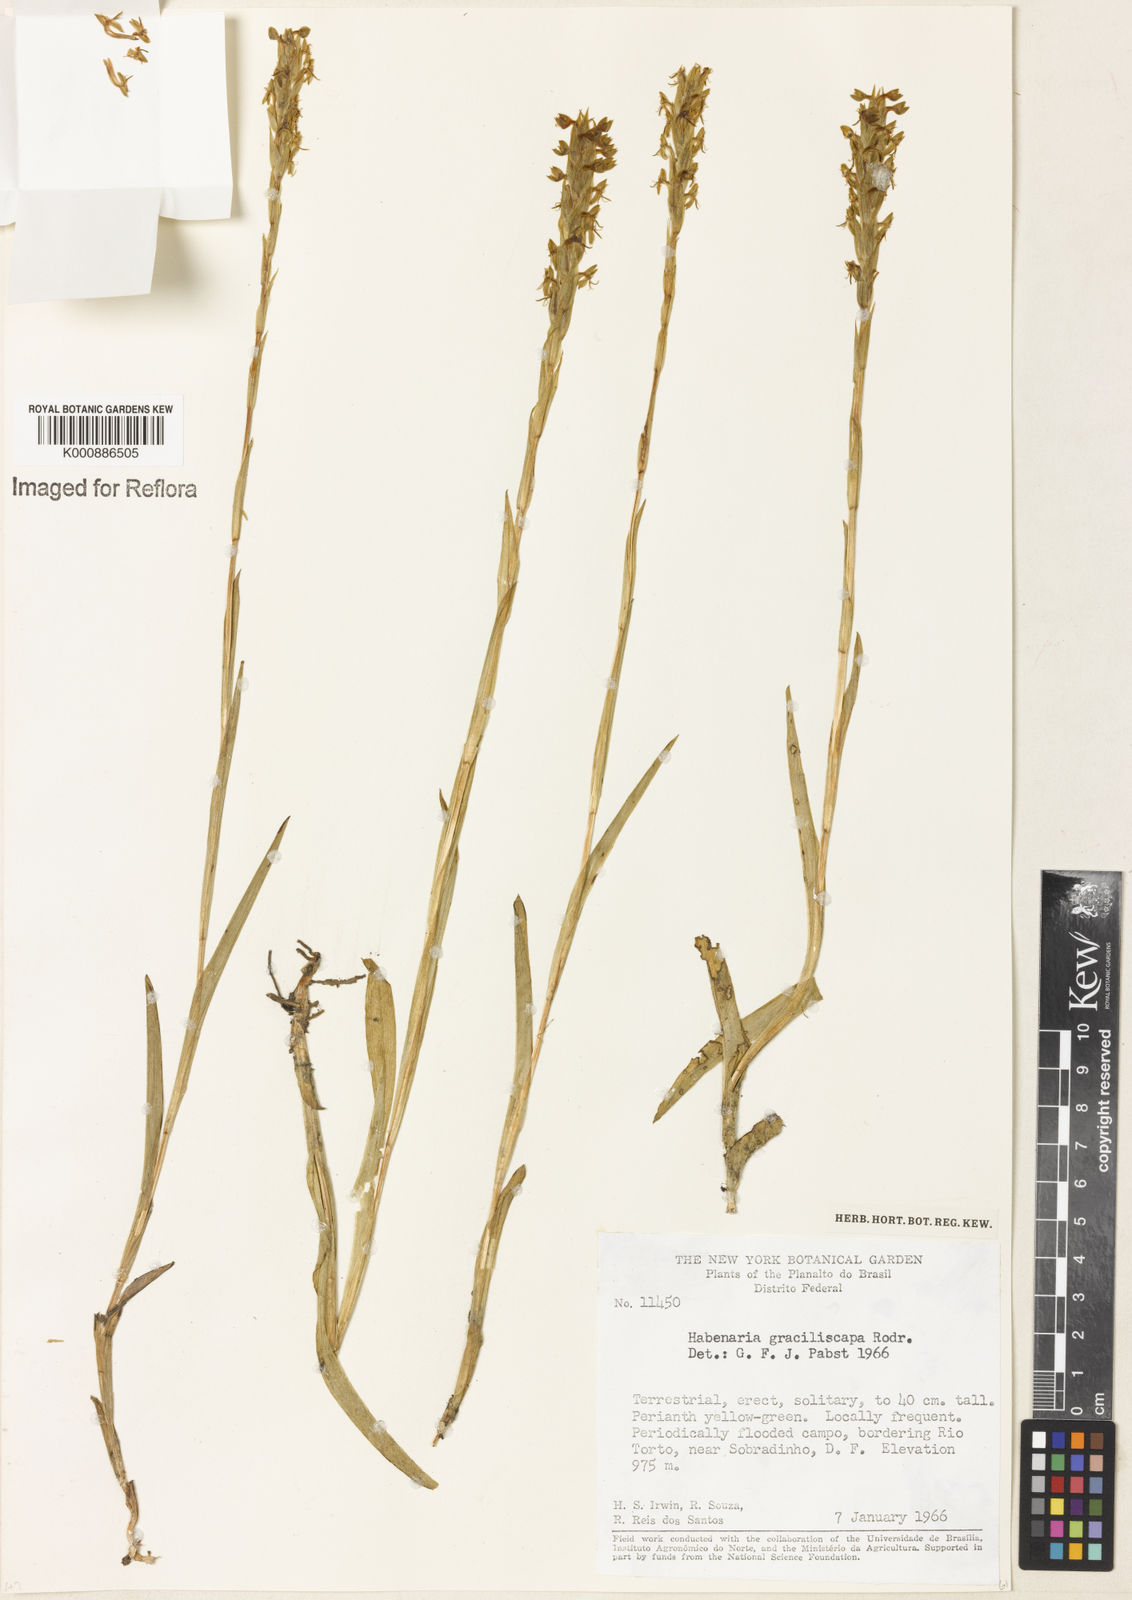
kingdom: Plantae
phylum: Tracheophyta
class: Liliopsida
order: Asparagales
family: Orchidaceae
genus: Habenaria
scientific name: Habenaria imbricata
